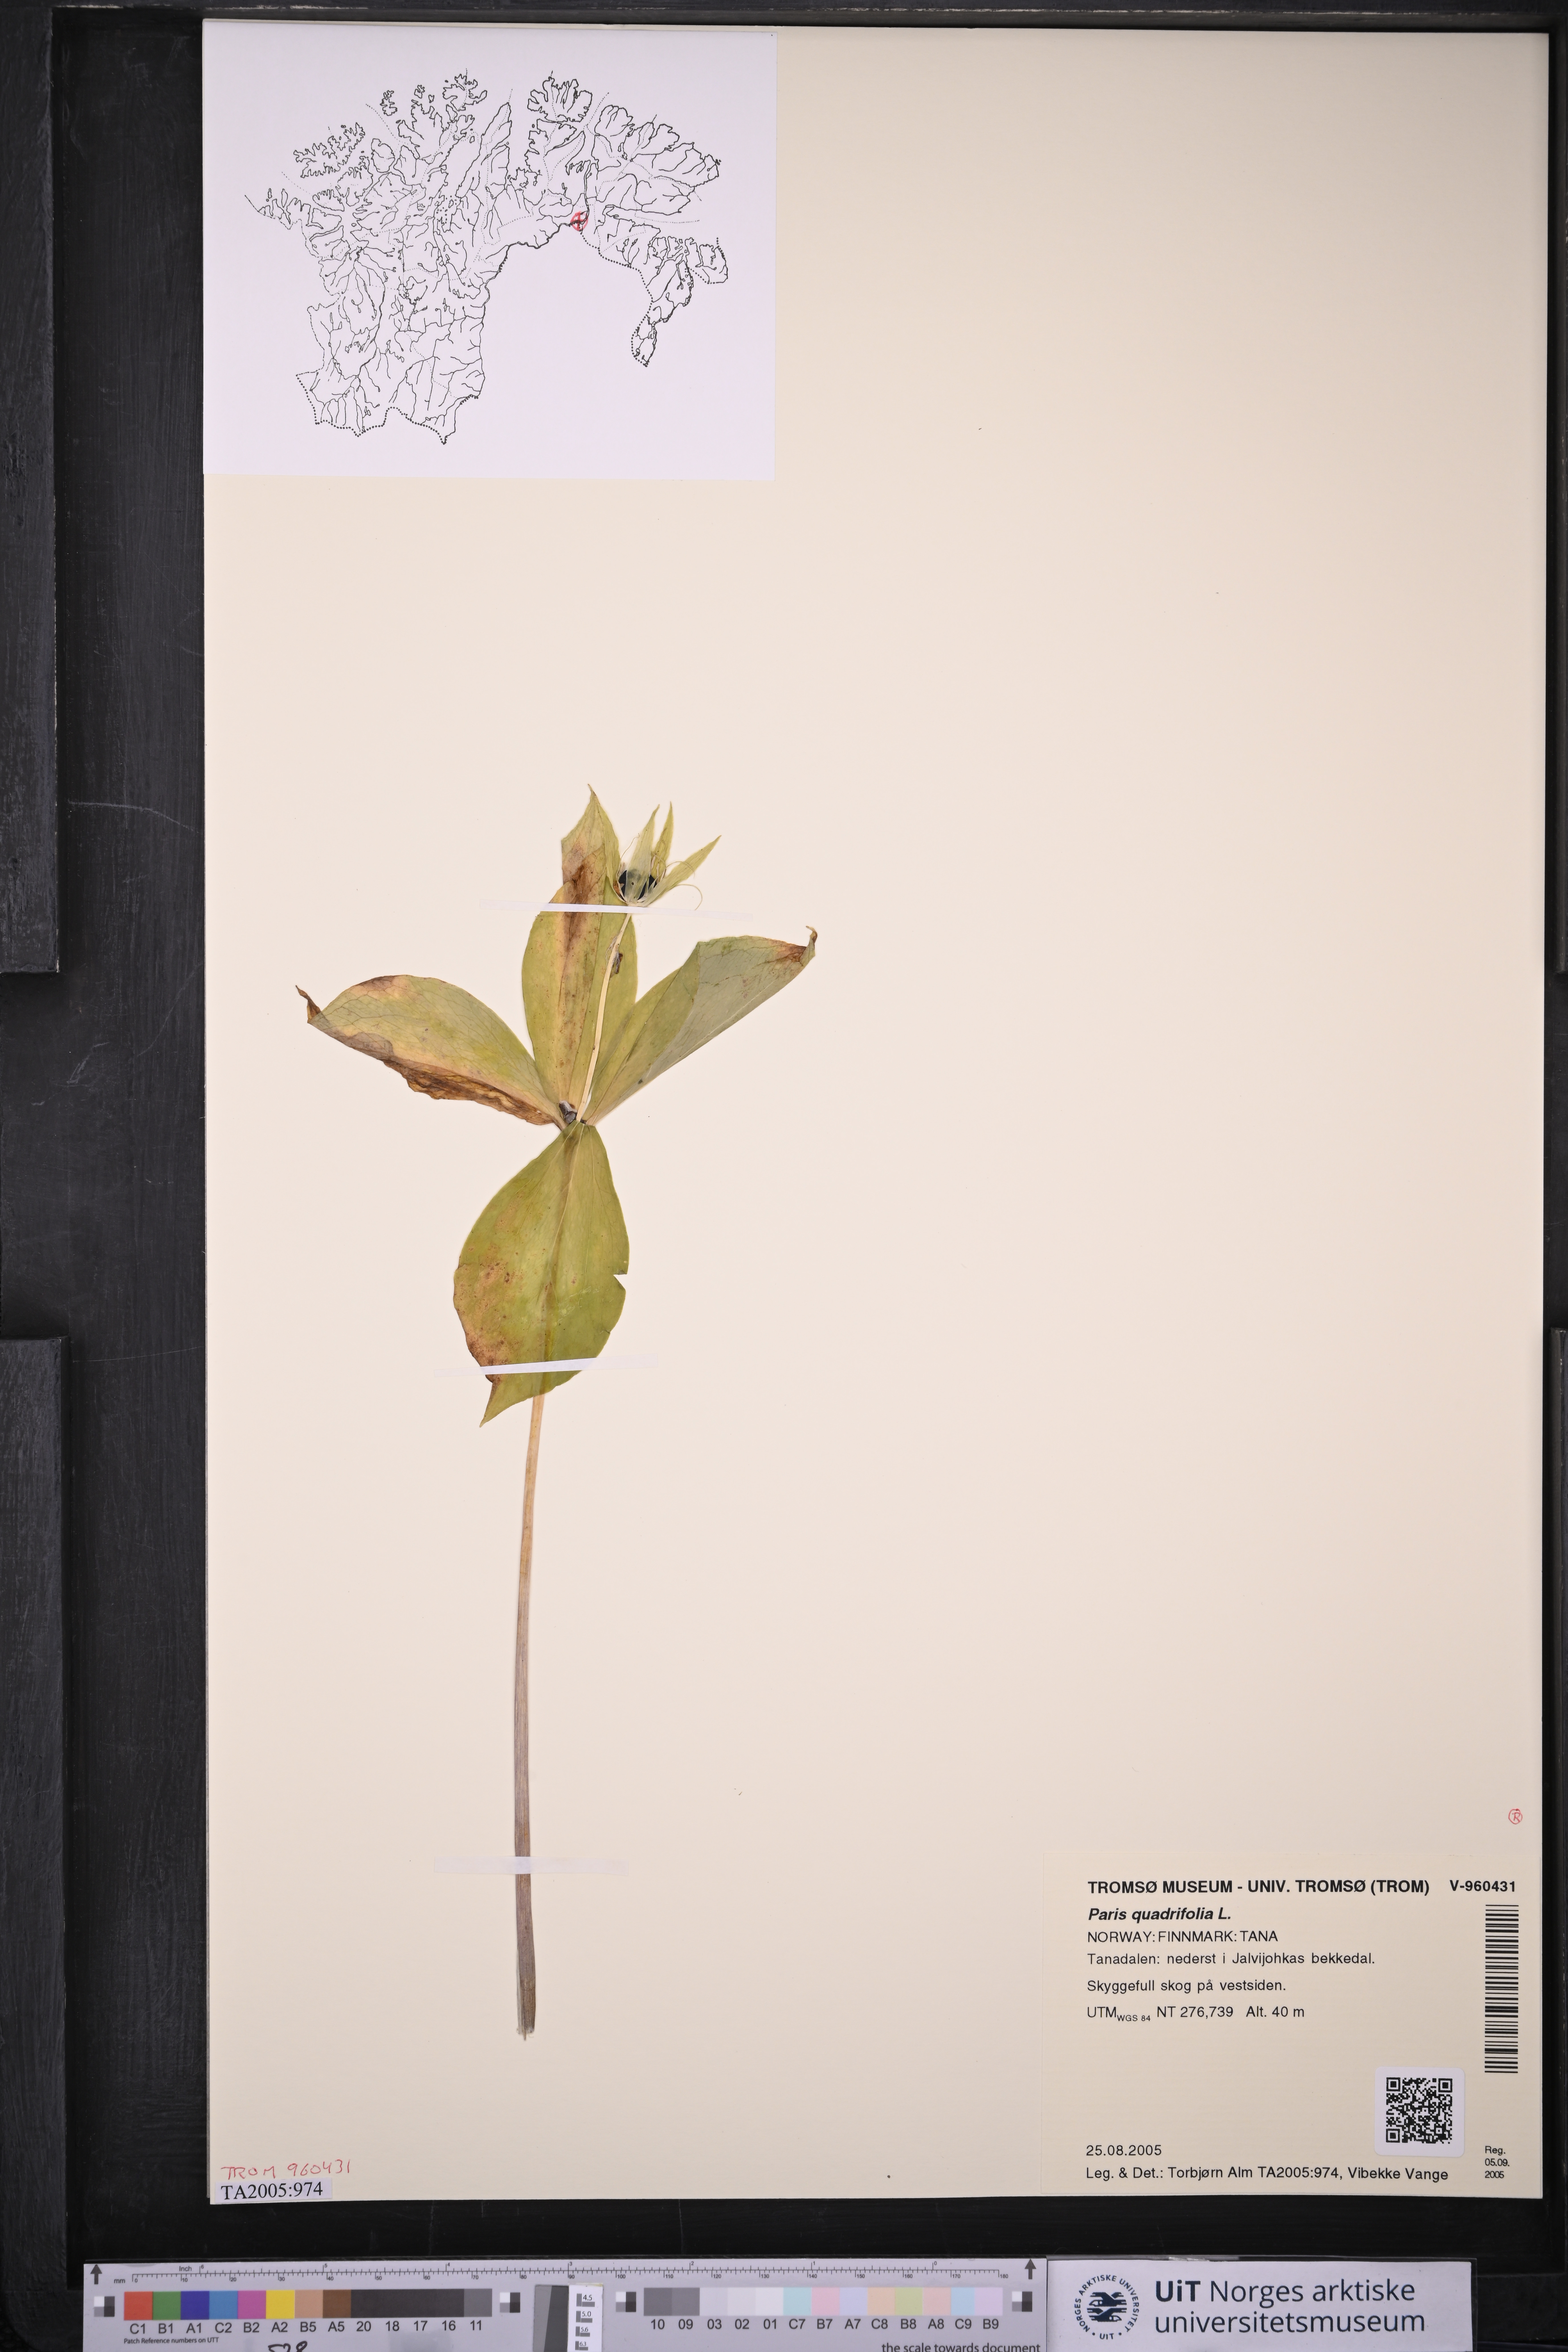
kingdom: Plantae
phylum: Tracheophyta
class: Liliopsida
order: Liliales
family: Melanthiaceae
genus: Paris
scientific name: Paris quadrifolia
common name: Herb-paris
